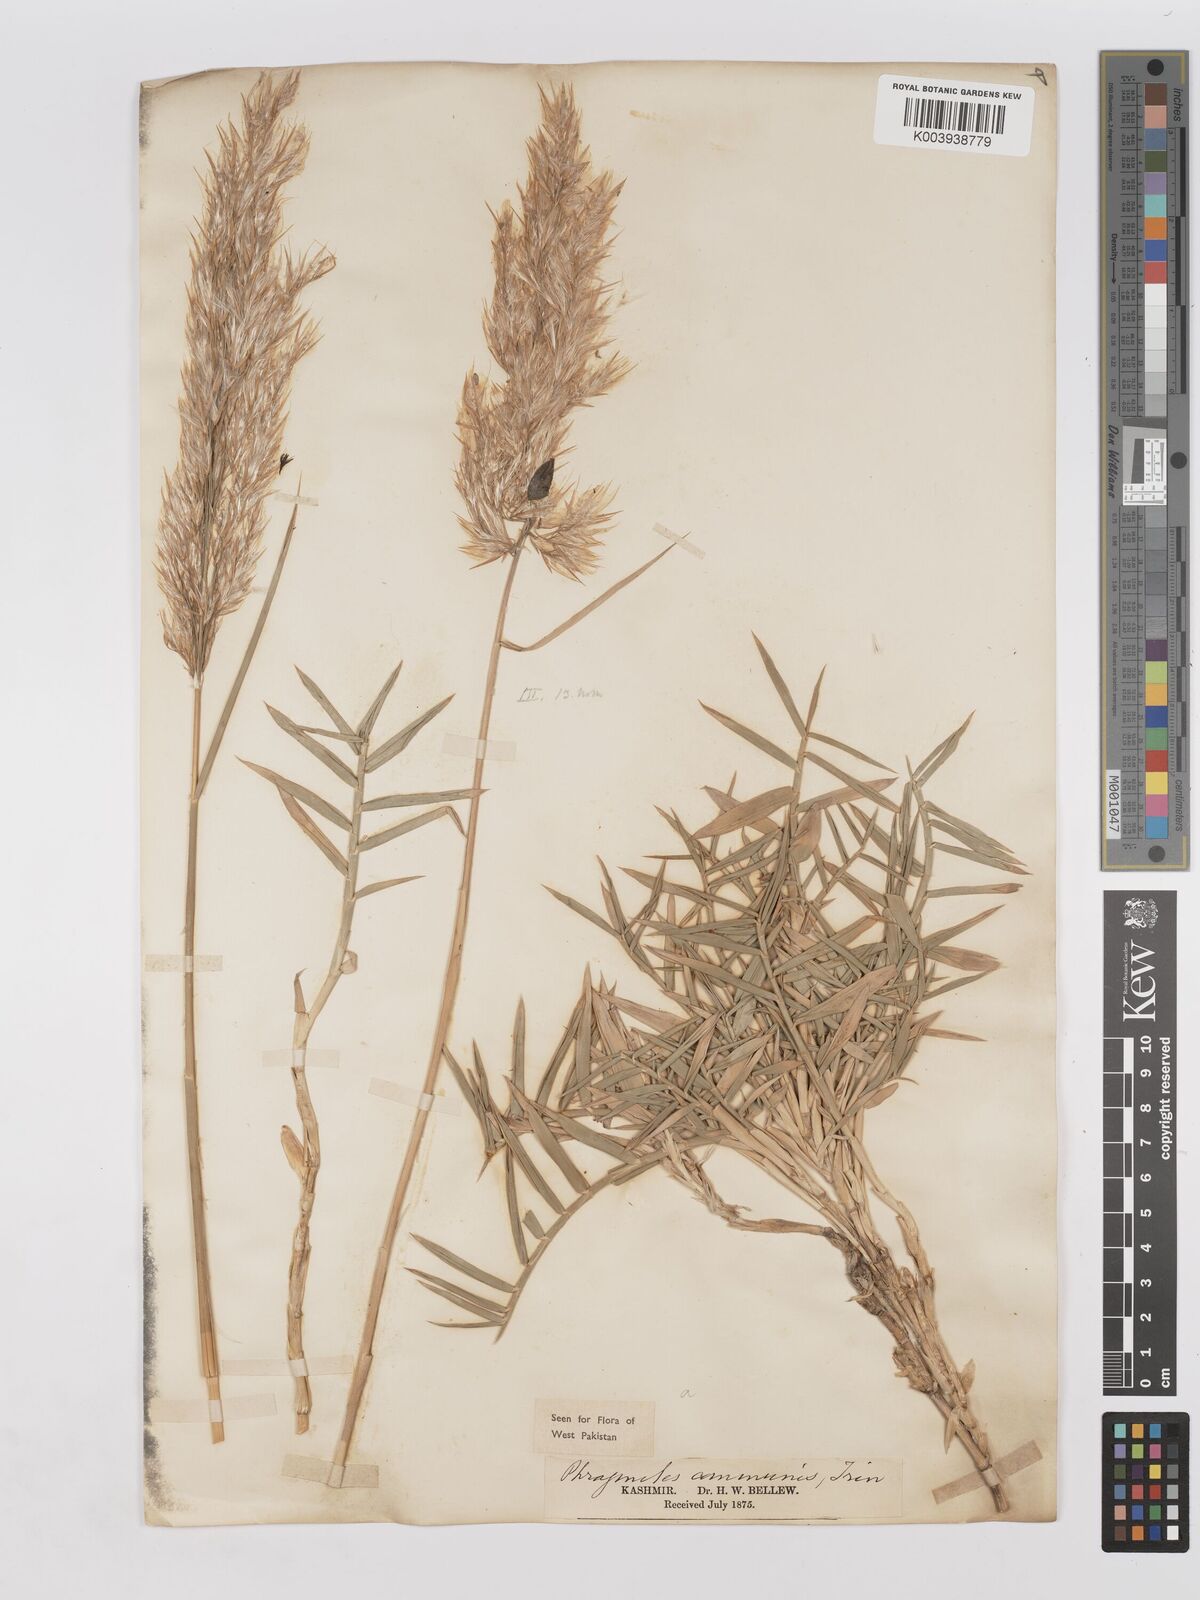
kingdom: Plantae
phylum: Tracheophyta
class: Liliopsida
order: Poales
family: Poaceae
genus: Phragmites
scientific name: Phragmites australis
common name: Common reed
